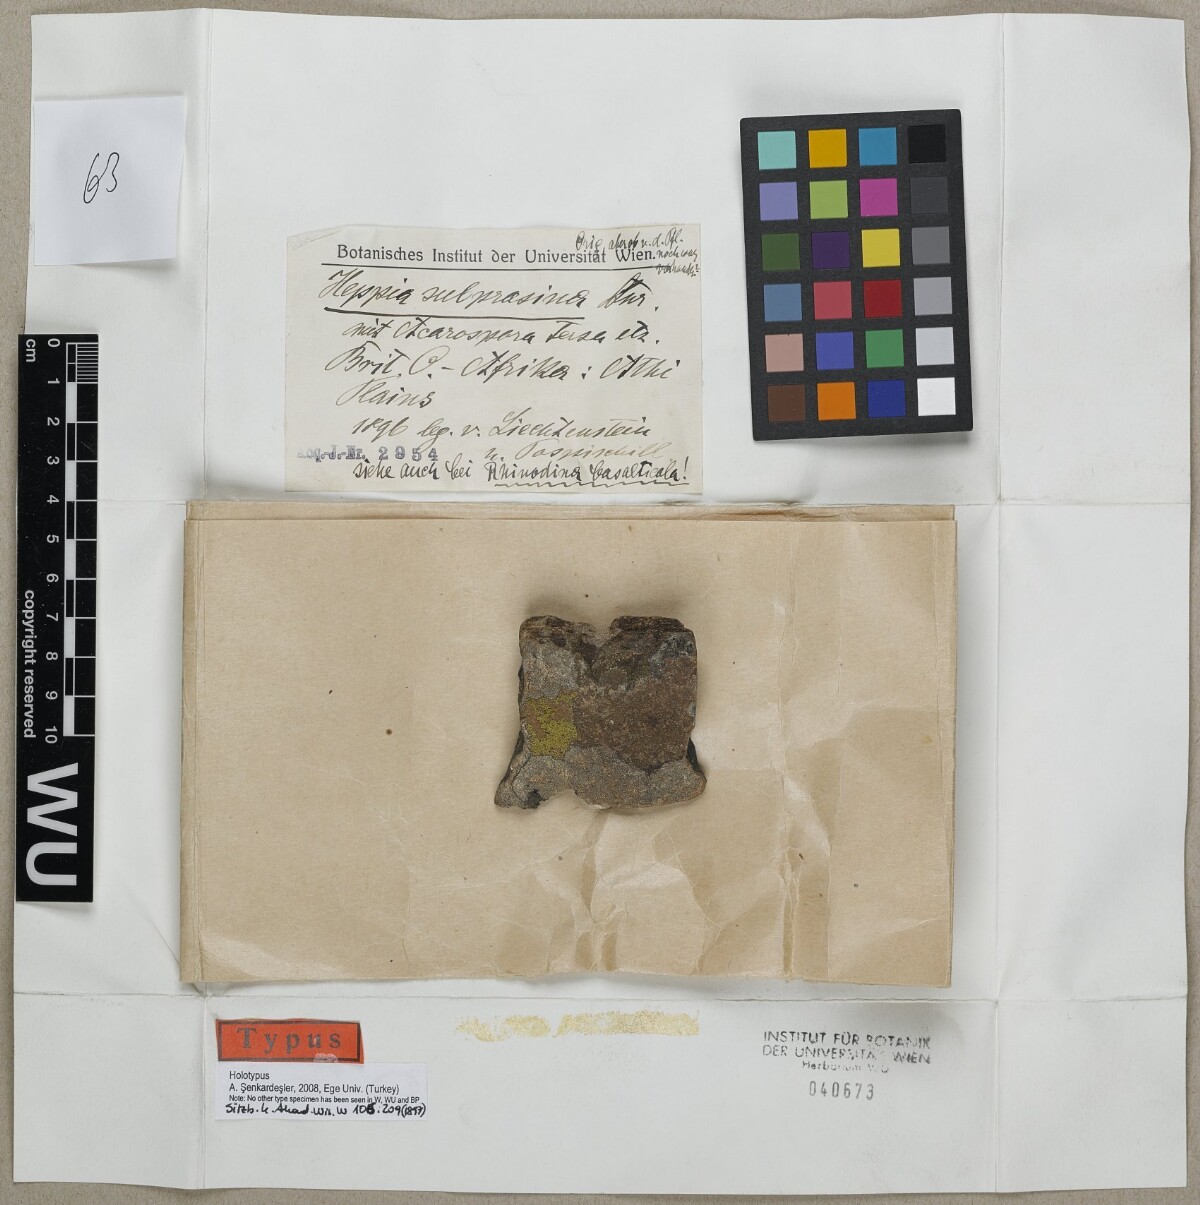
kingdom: Fungi
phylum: Ascomycota
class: Lichinomycetes
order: Lichinales
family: Lichinaceae
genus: Heppia
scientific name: Heppia
